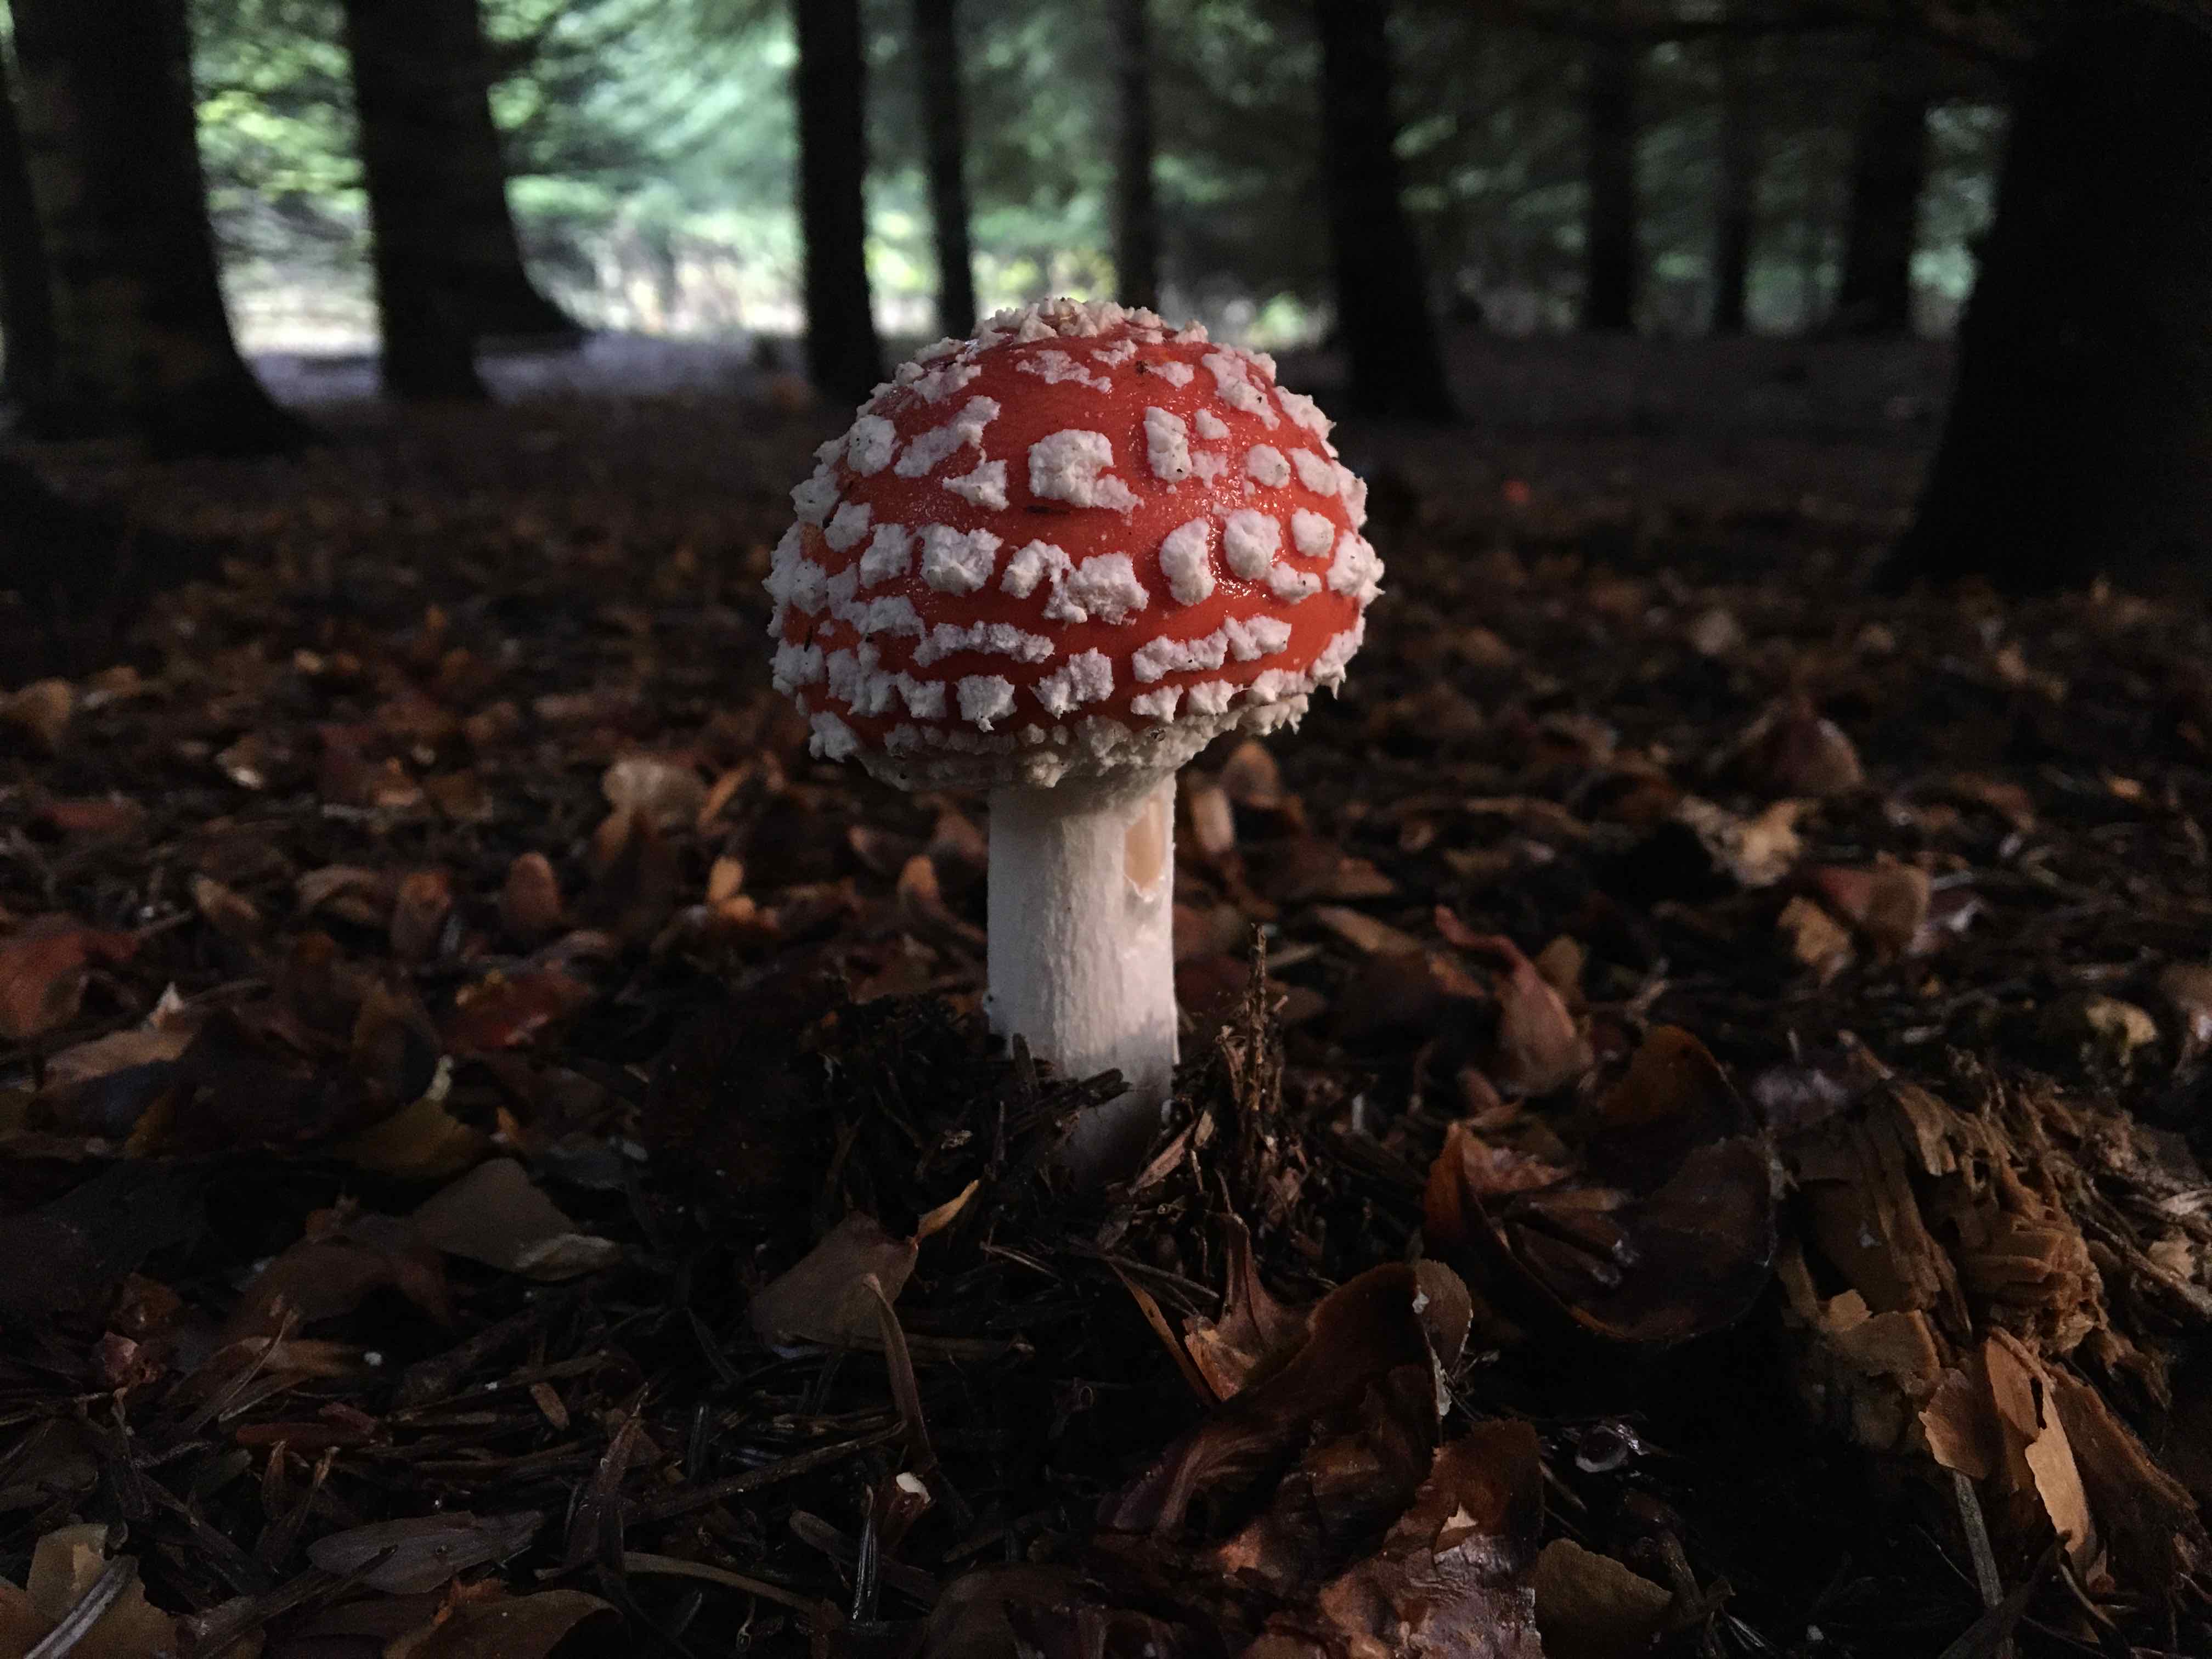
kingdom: Fungi
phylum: Basidiomycota
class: Agaricomycetes
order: Agaricales
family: Amanitaceae
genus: Amanita
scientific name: Amanita muscaria
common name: rød fluesvamp
